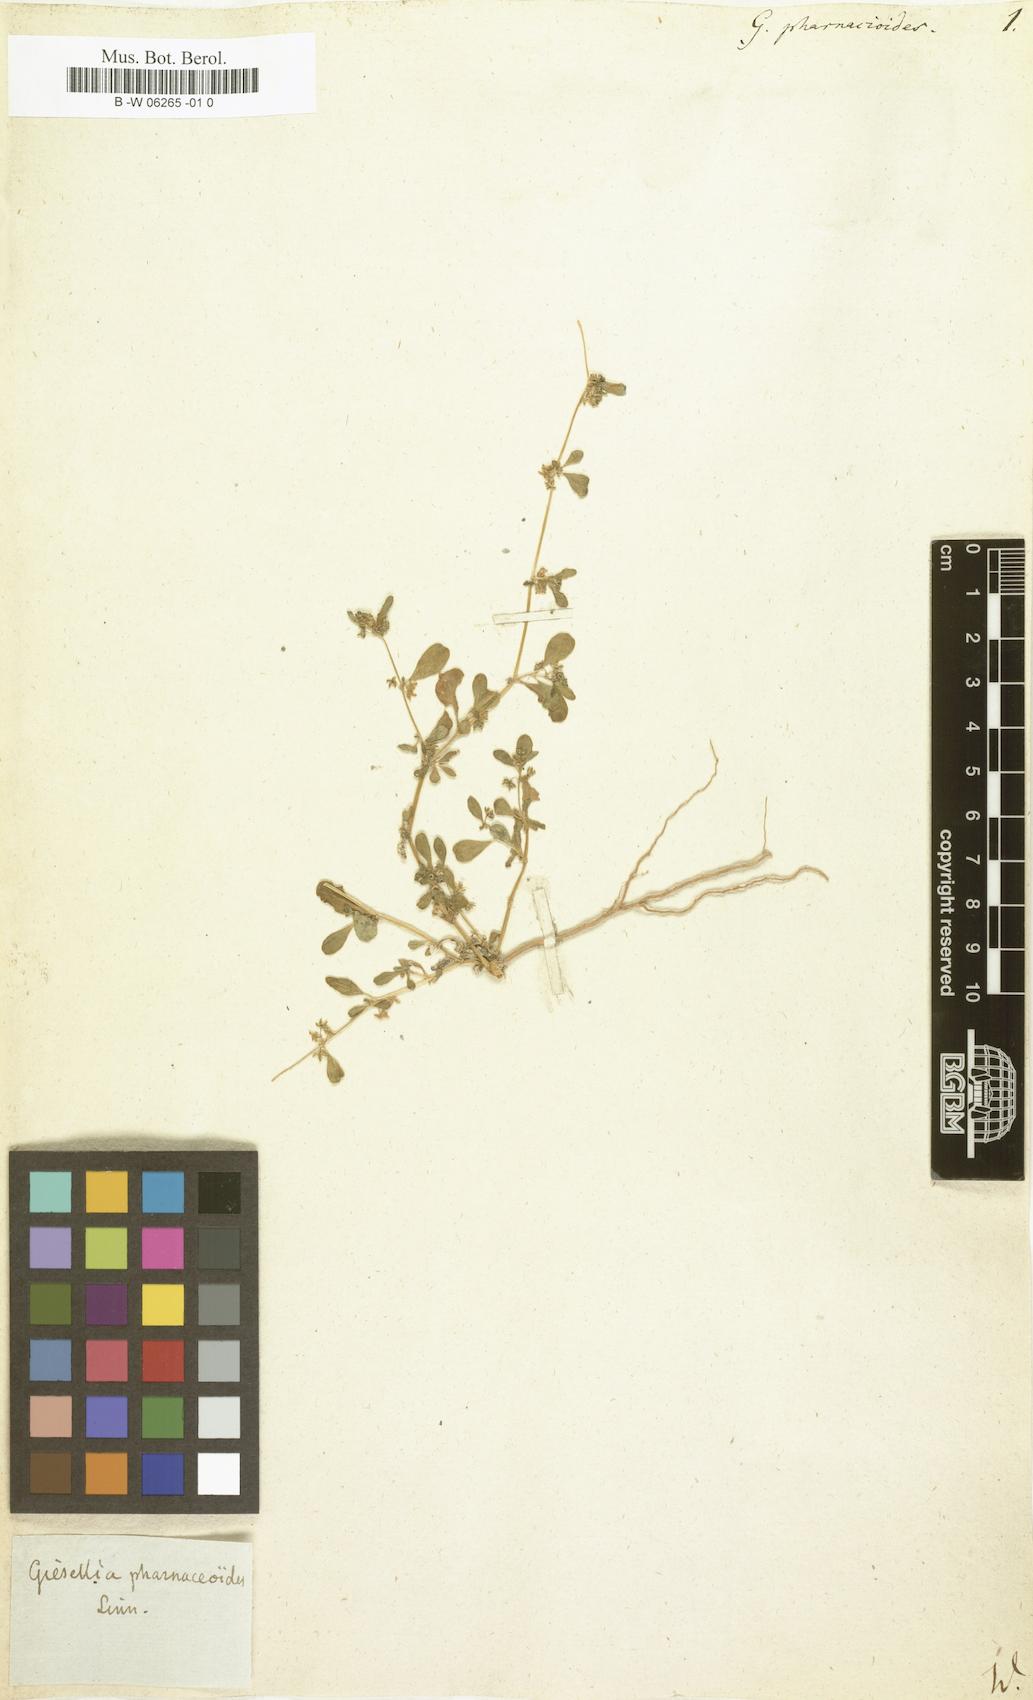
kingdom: Plantae
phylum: Tracheophyta
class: Magnoliopsida
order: Caryophyllales
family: Gisekiaceae
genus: Gisekia
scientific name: Gisekia pharnacioides
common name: Oldmaid
